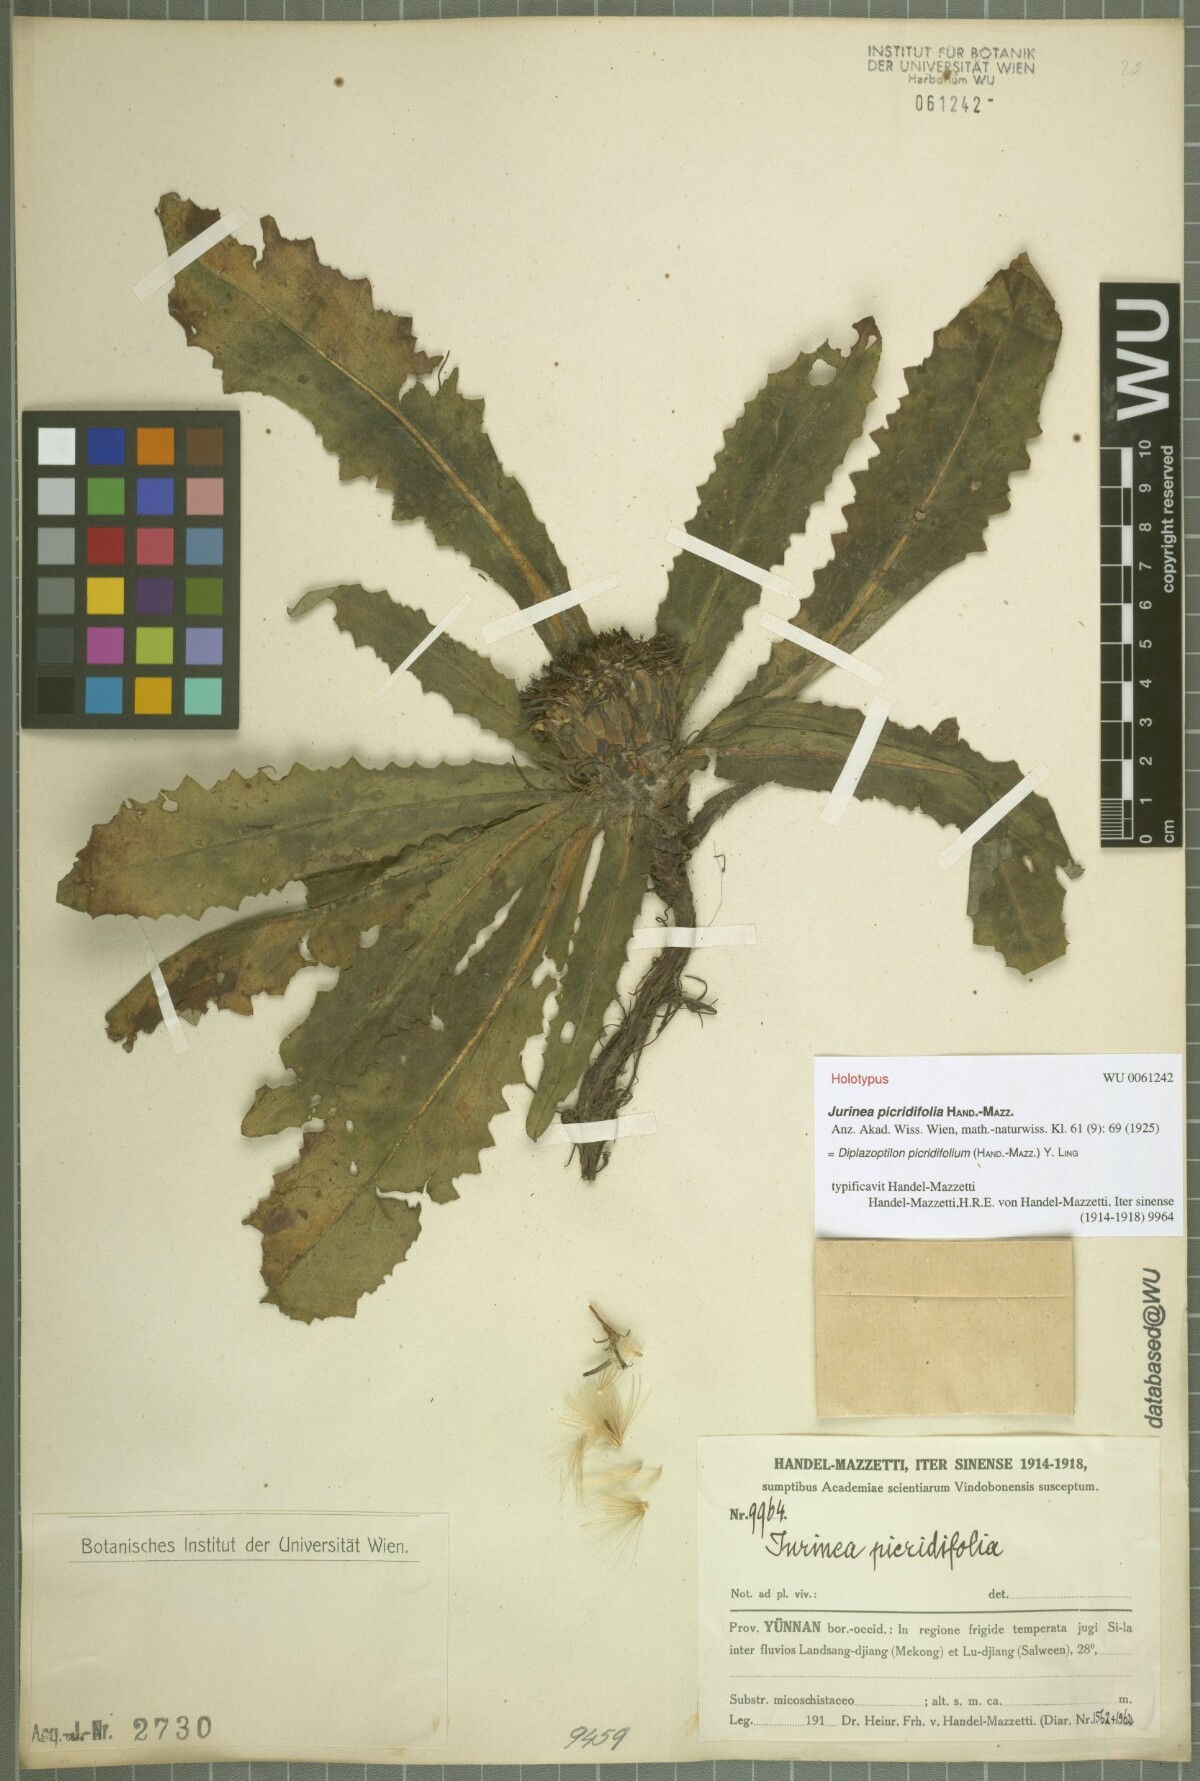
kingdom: Plantae
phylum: Tracheophyta
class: Magnoliopsida
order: Asterales
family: Asteraceae
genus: Saussurea
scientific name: Saussurea picridifolia
